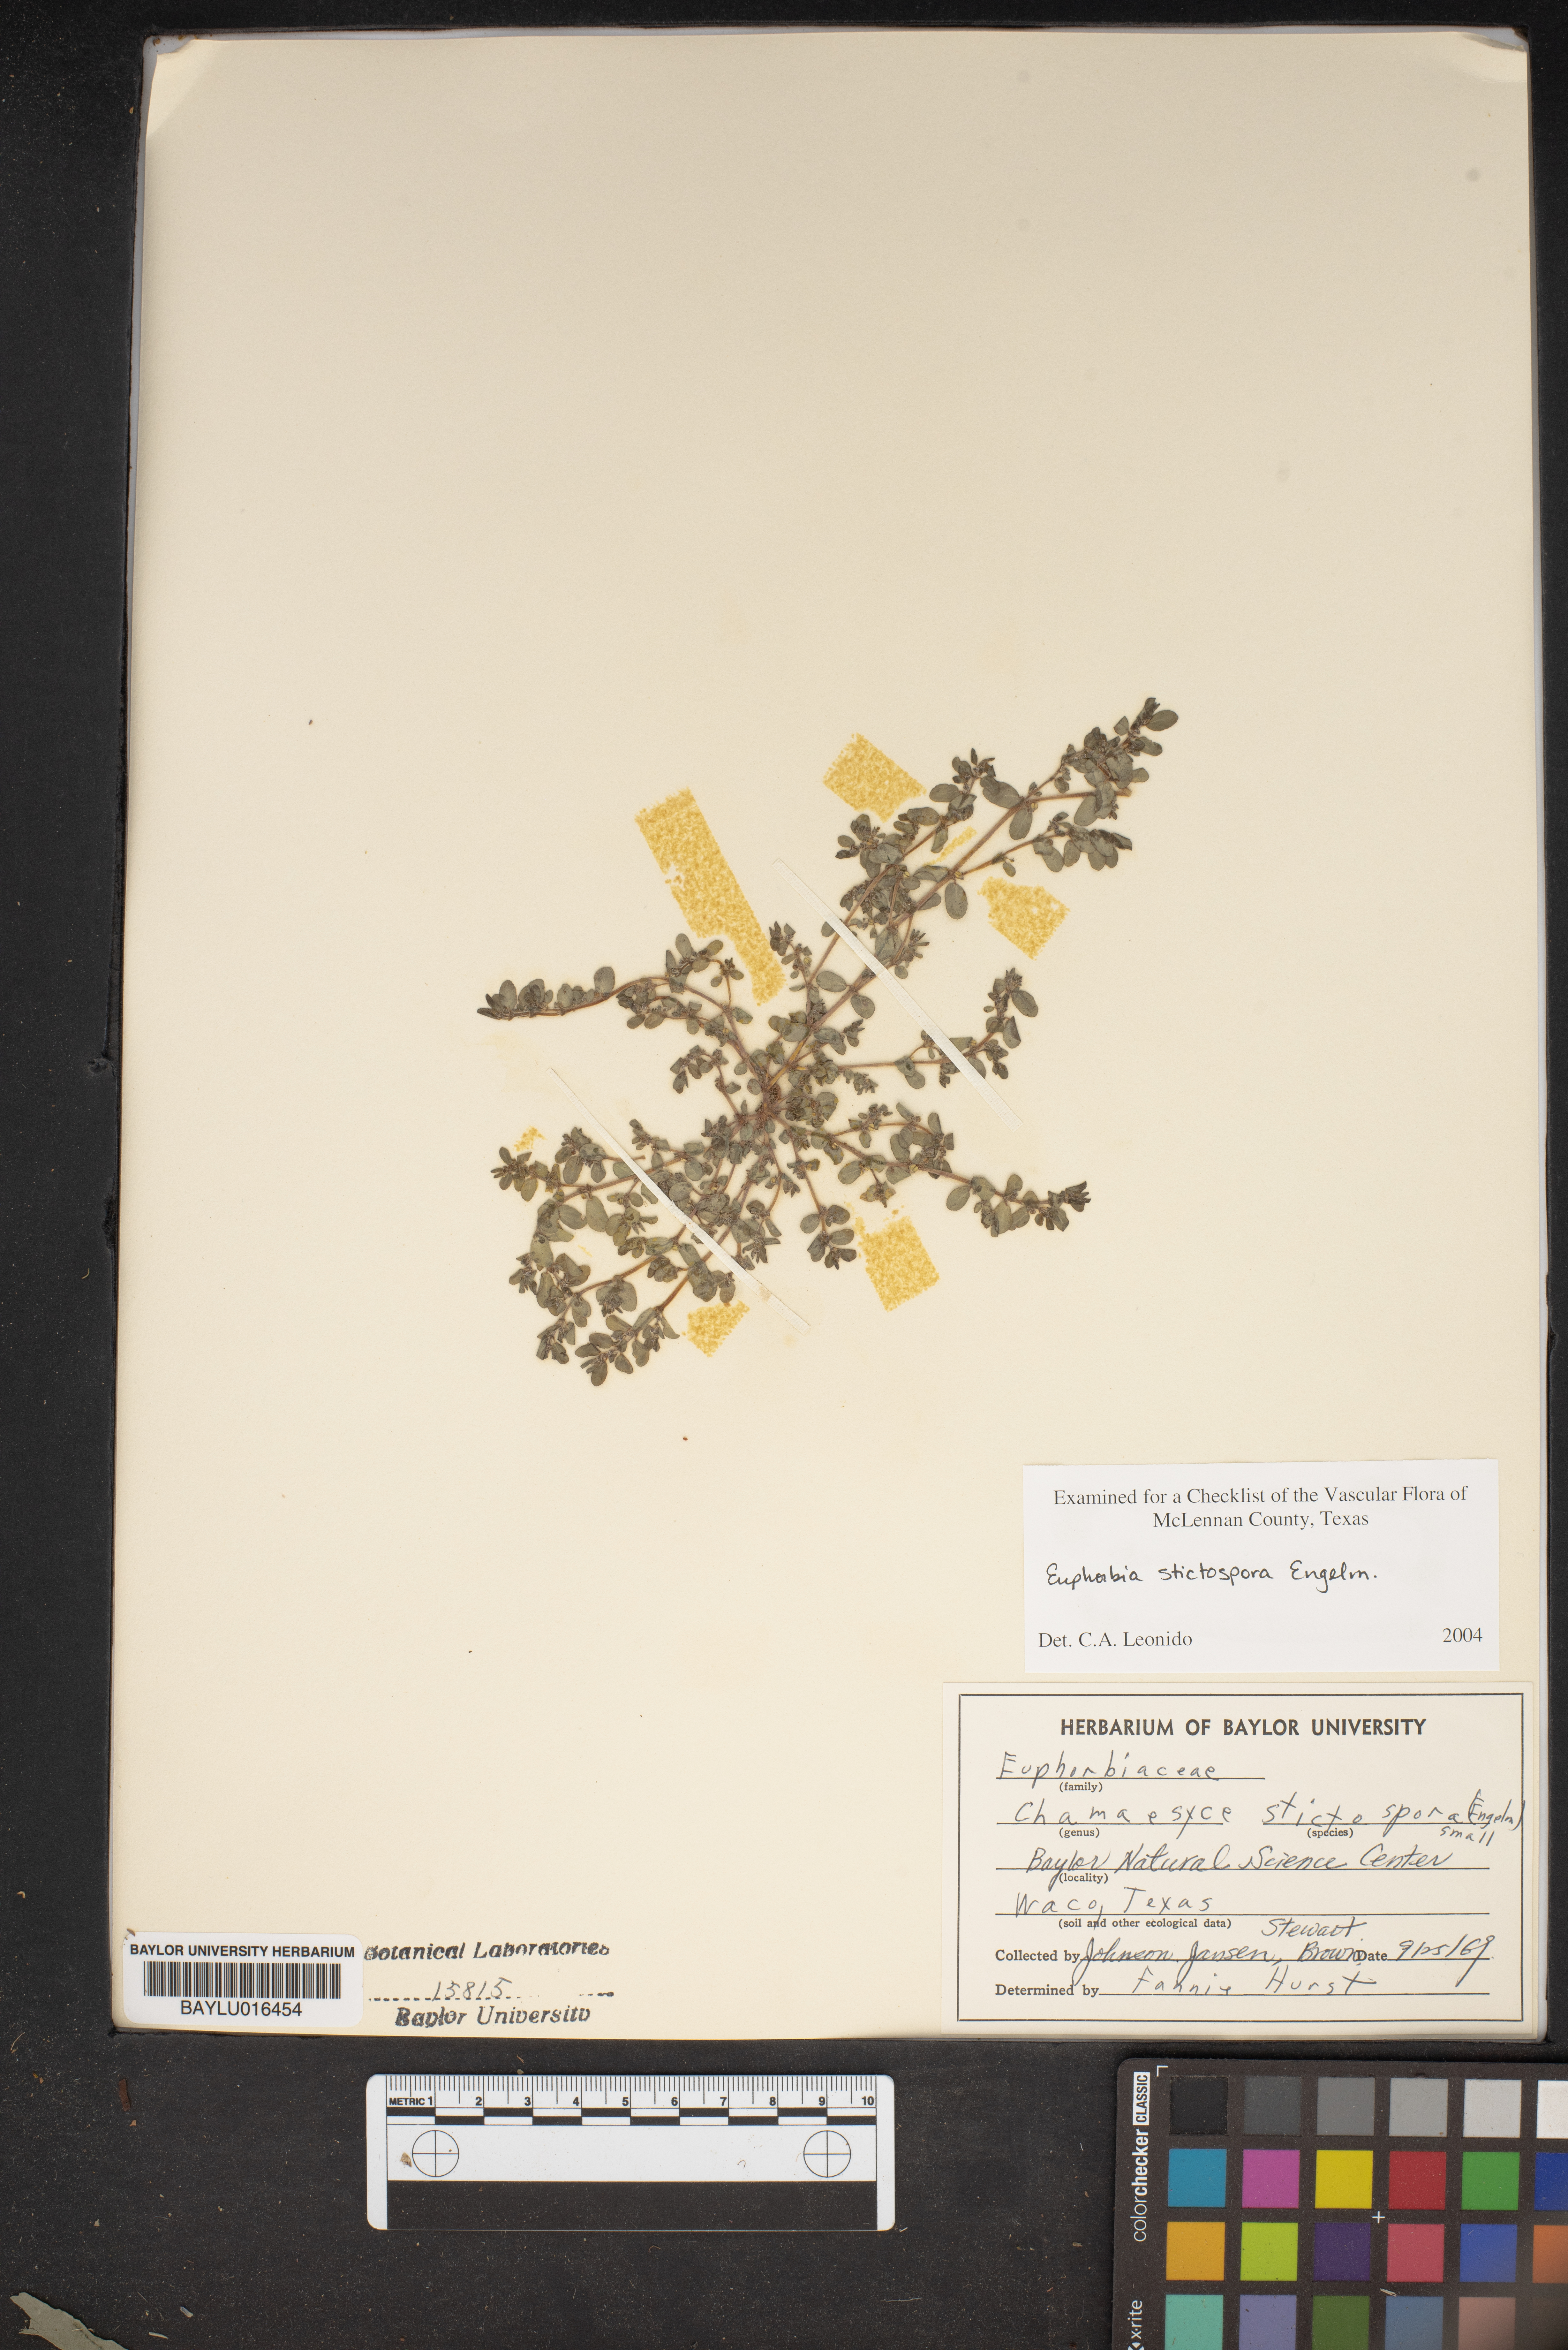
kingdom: Plantae
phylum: Tracheophyta
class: Magnoliopsida
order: Malpighiales
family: Euphorbiaceae
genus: Euphorbia
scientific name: Euphorbia stictospora
